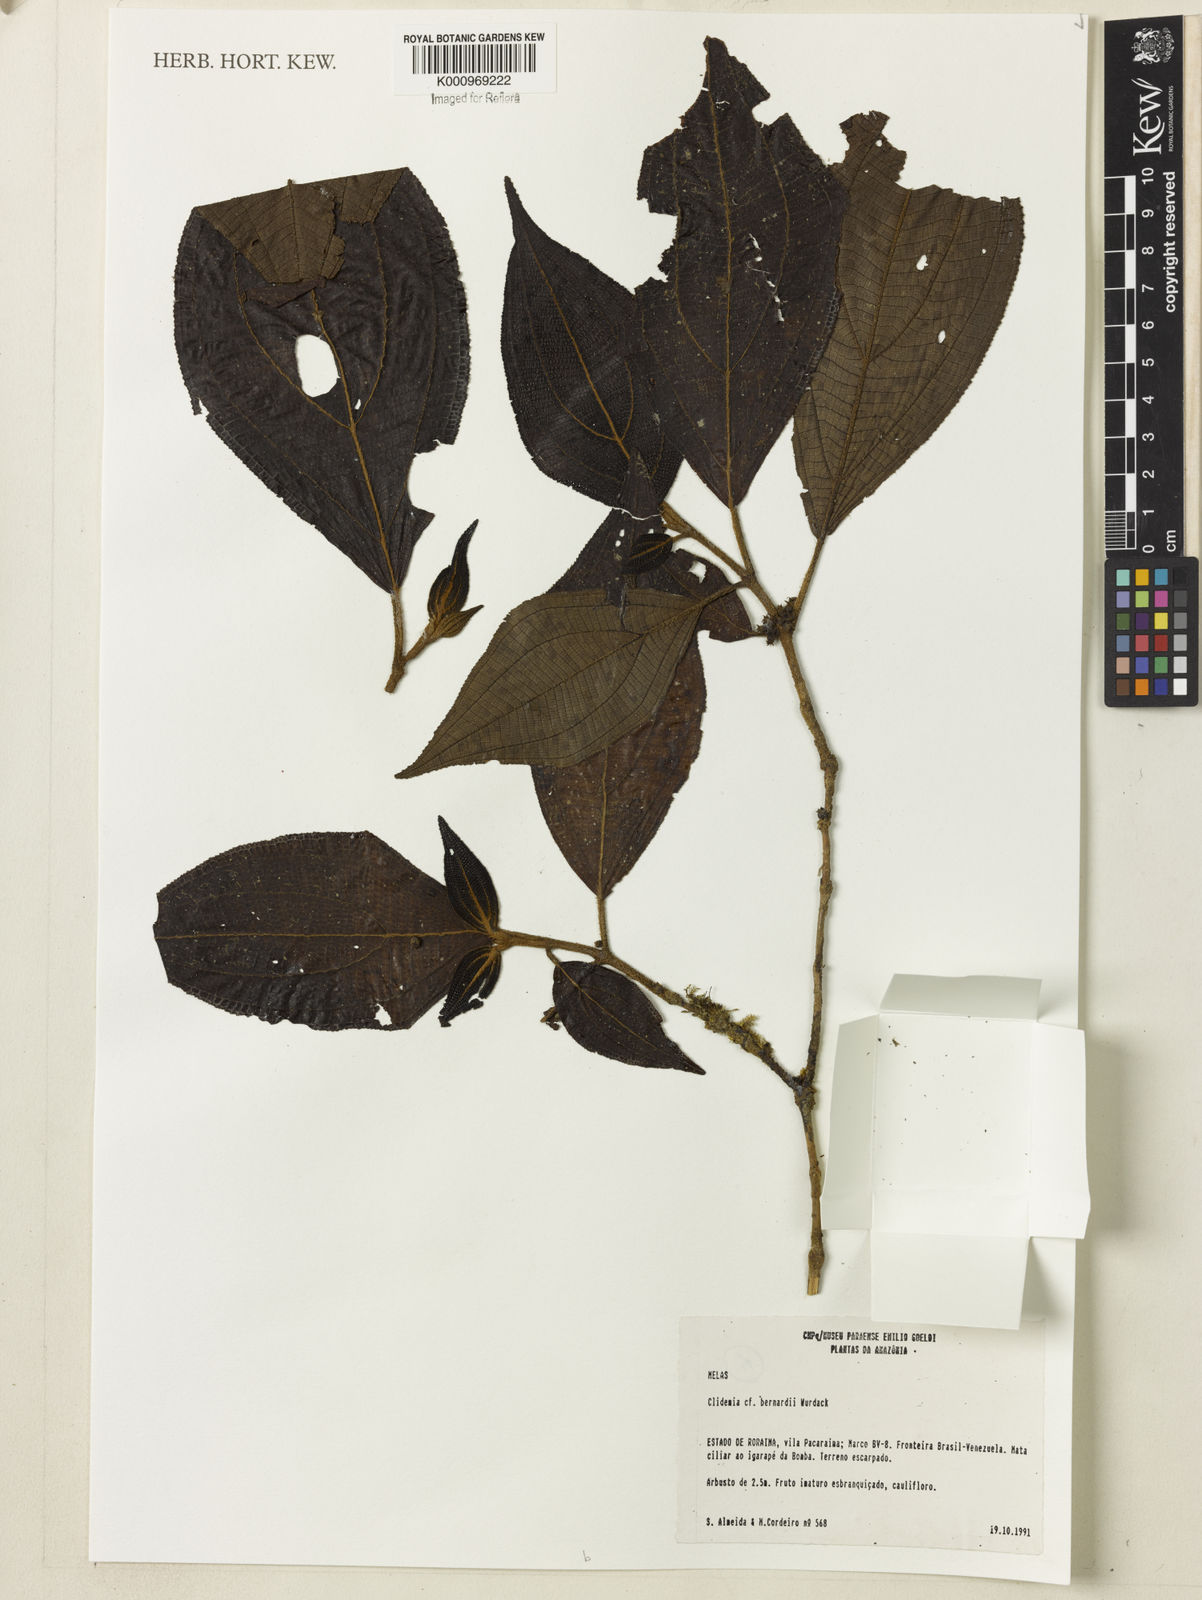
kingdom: Plantae
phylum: Tracheophyta
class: Magnoliopsida
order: Myrtales
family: Melastomataceae
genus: Miconia
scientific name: Miconia lucianobernardii
